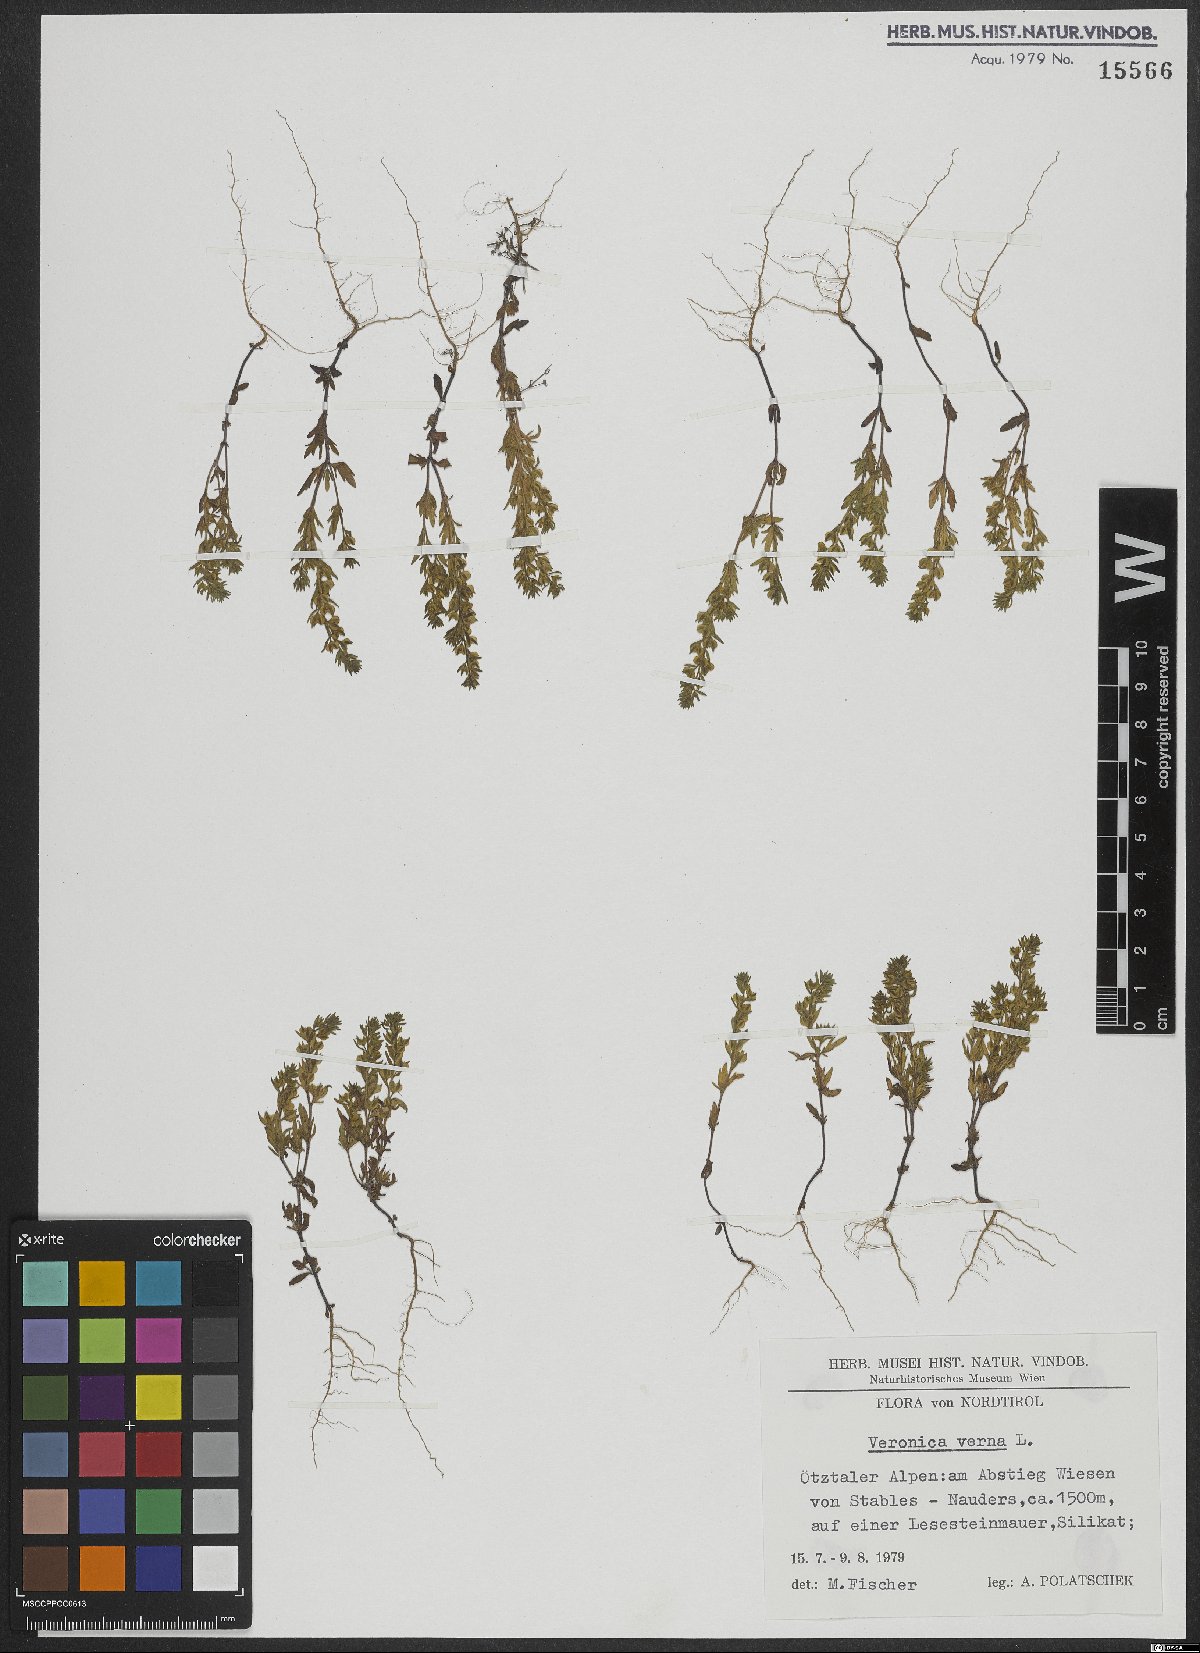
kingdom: Plantae
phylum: Tracheophyta
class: Magnoliopsida
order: Lamiales
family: Plantaginaceae
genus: Veronica
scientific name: Veronica verna
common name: Spring speedwell
